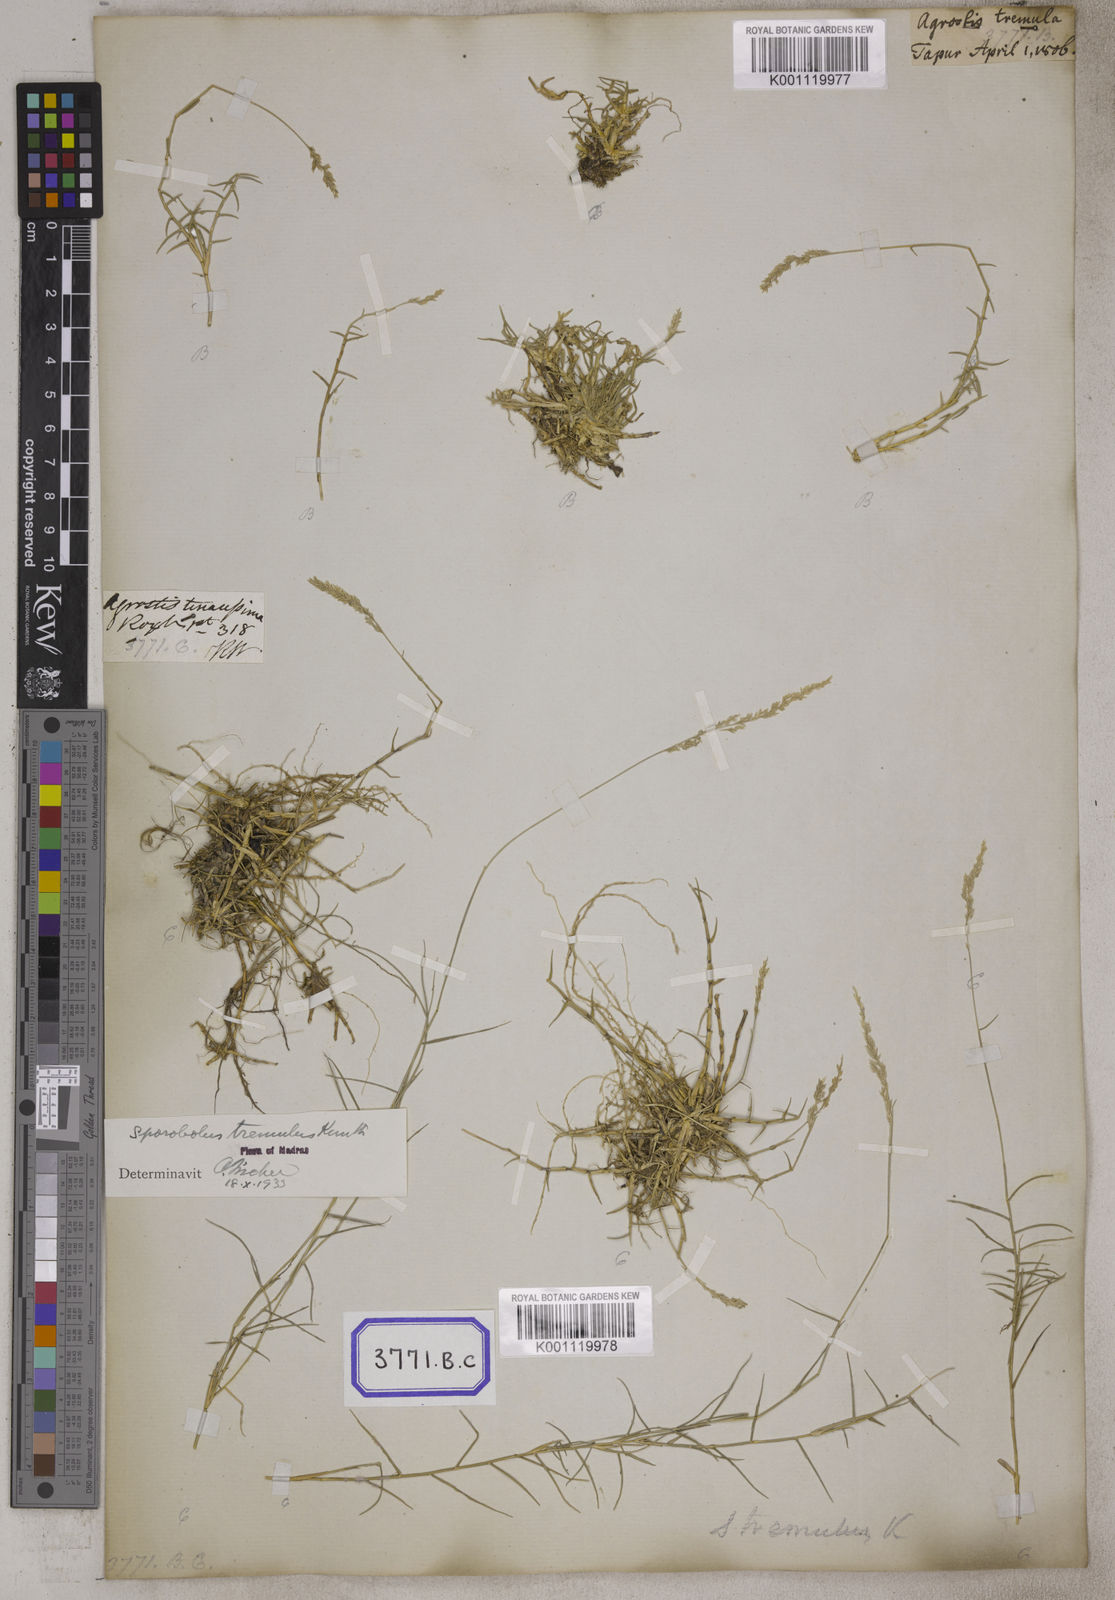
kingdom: Plantae
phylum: Tracheophyta
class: Liliopsida
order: Poales
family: Poaceae
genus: Sporobolus
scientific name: Sporobolus
